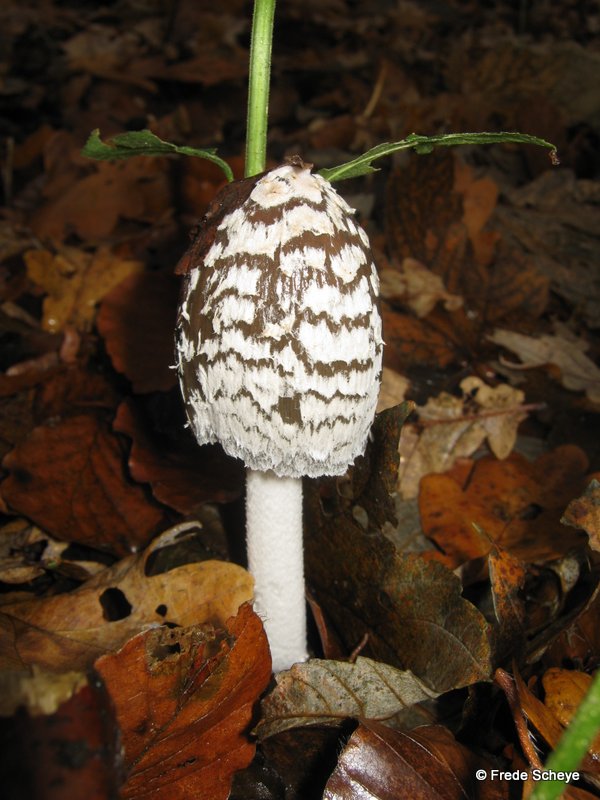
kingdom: Fungi
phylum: Basidiomycota
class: Agaricomycetes
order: Agaricales
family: Psathyrellaceae
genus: Coprinopsis
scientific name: Coprinopsis picacea
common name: skade-blækhat
